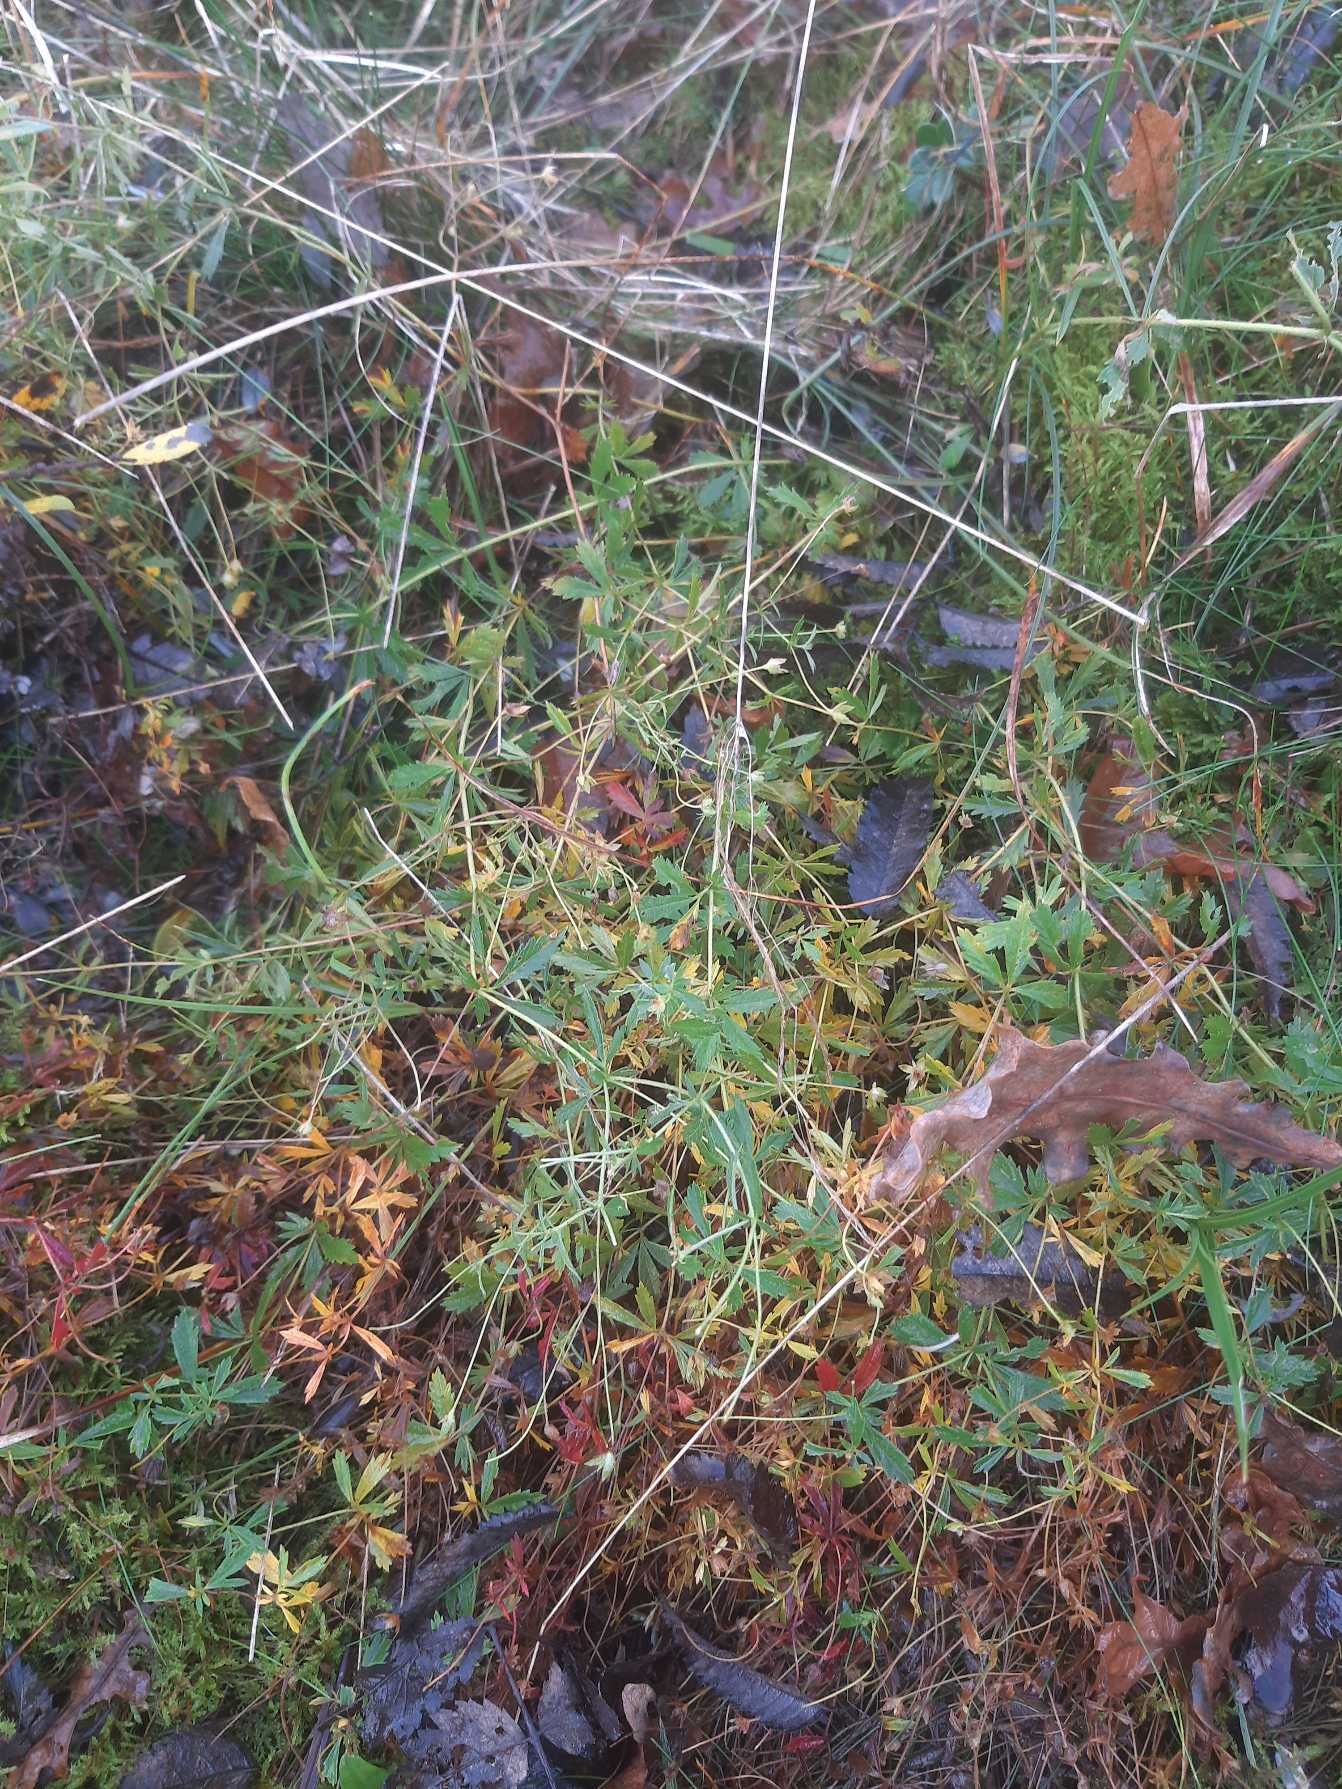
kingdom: Plantae
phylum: Tracheophyta
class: Magnoliopsida
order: Rosales
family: Rosaceae
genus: Potentilla
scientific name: Potentilla erecta
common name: Tormentil
